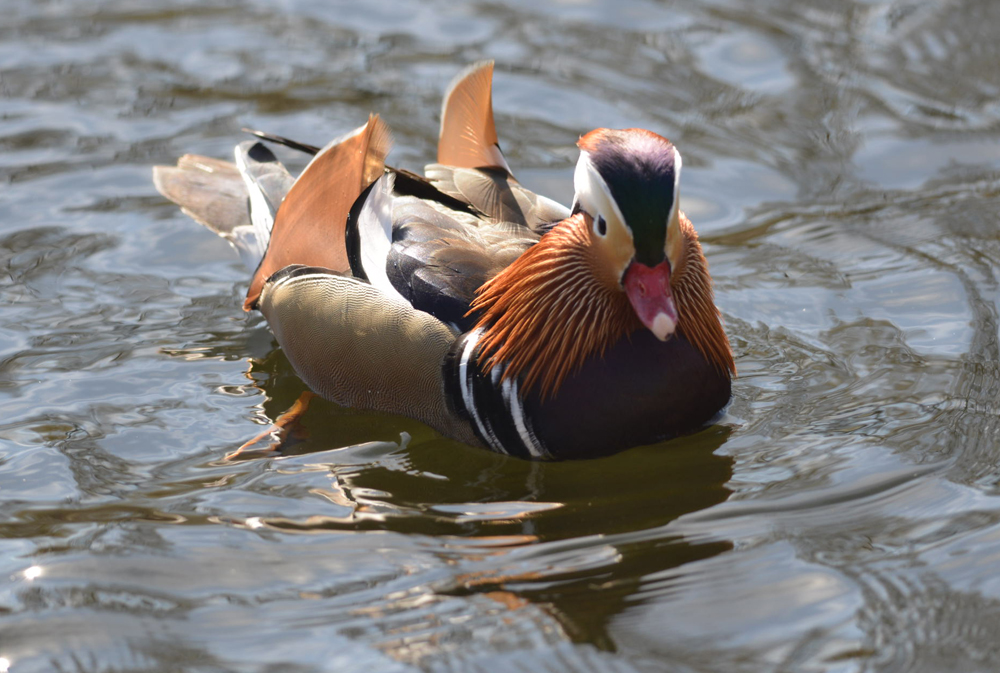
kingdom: Animalia
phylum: Chordata
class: Aves
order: Anseriformes
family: Anatidae
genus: Aix
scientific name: Aix galericulata
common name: Mandarin duck
